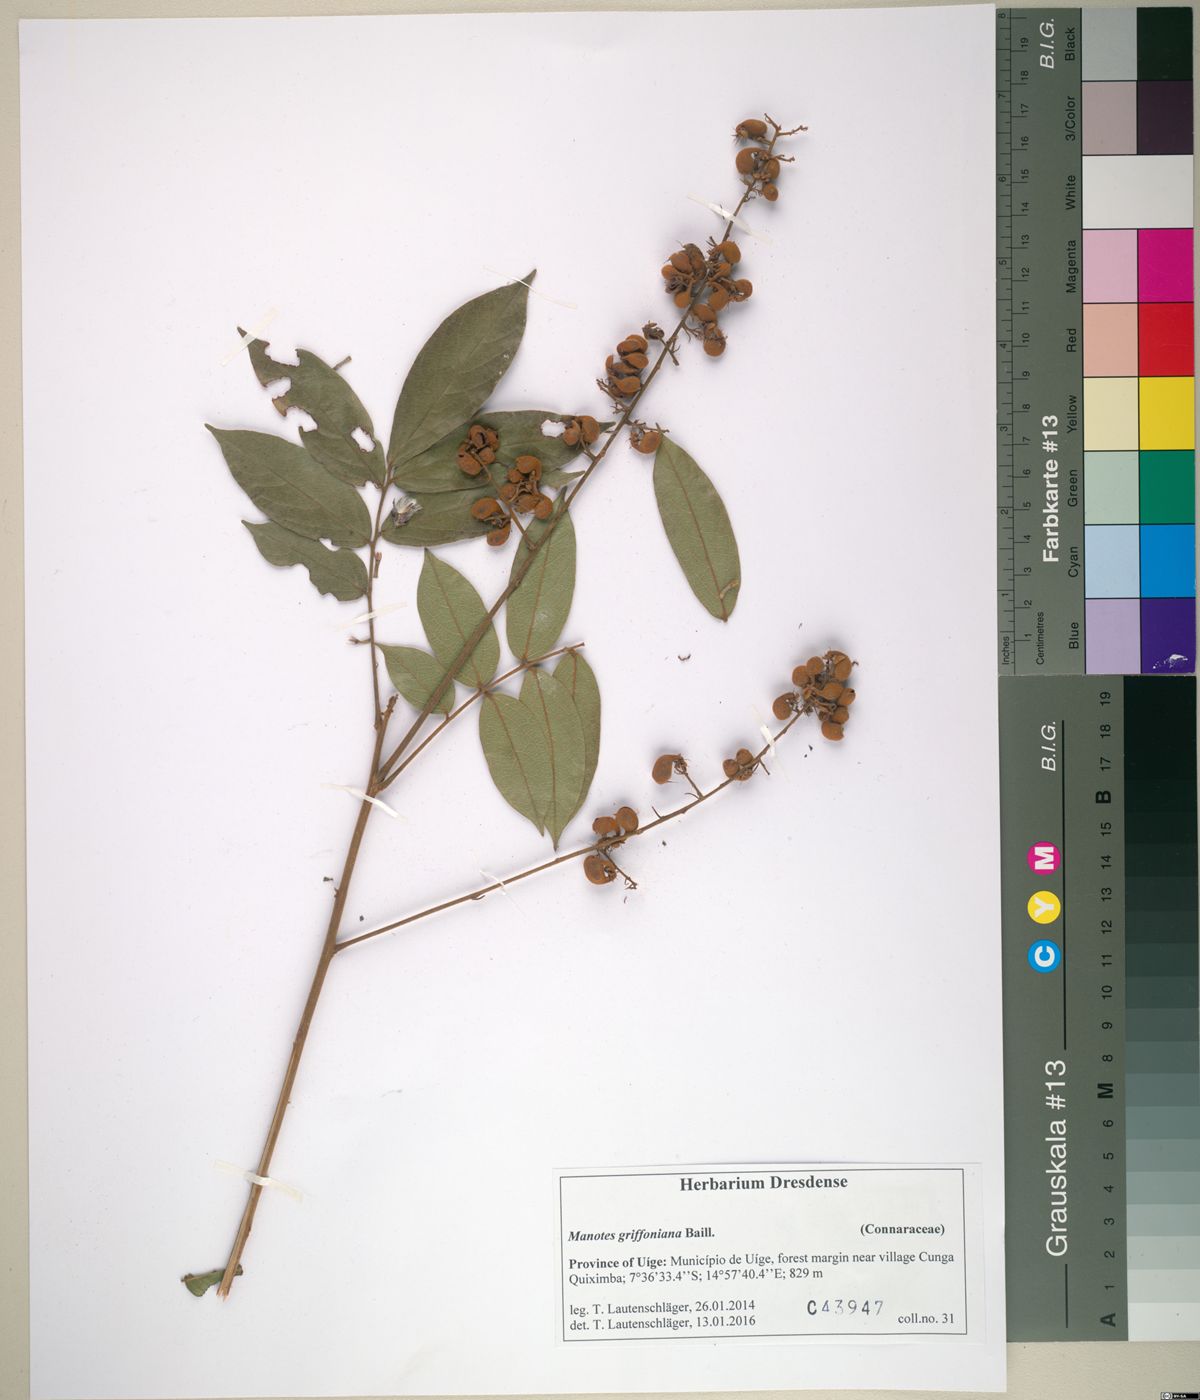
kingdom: Plantae
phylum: Tracheophyta
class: Magnoliopsida
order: Oxalidales
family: Connaraceae
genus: Manotes
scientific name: Manotes griffoniana
